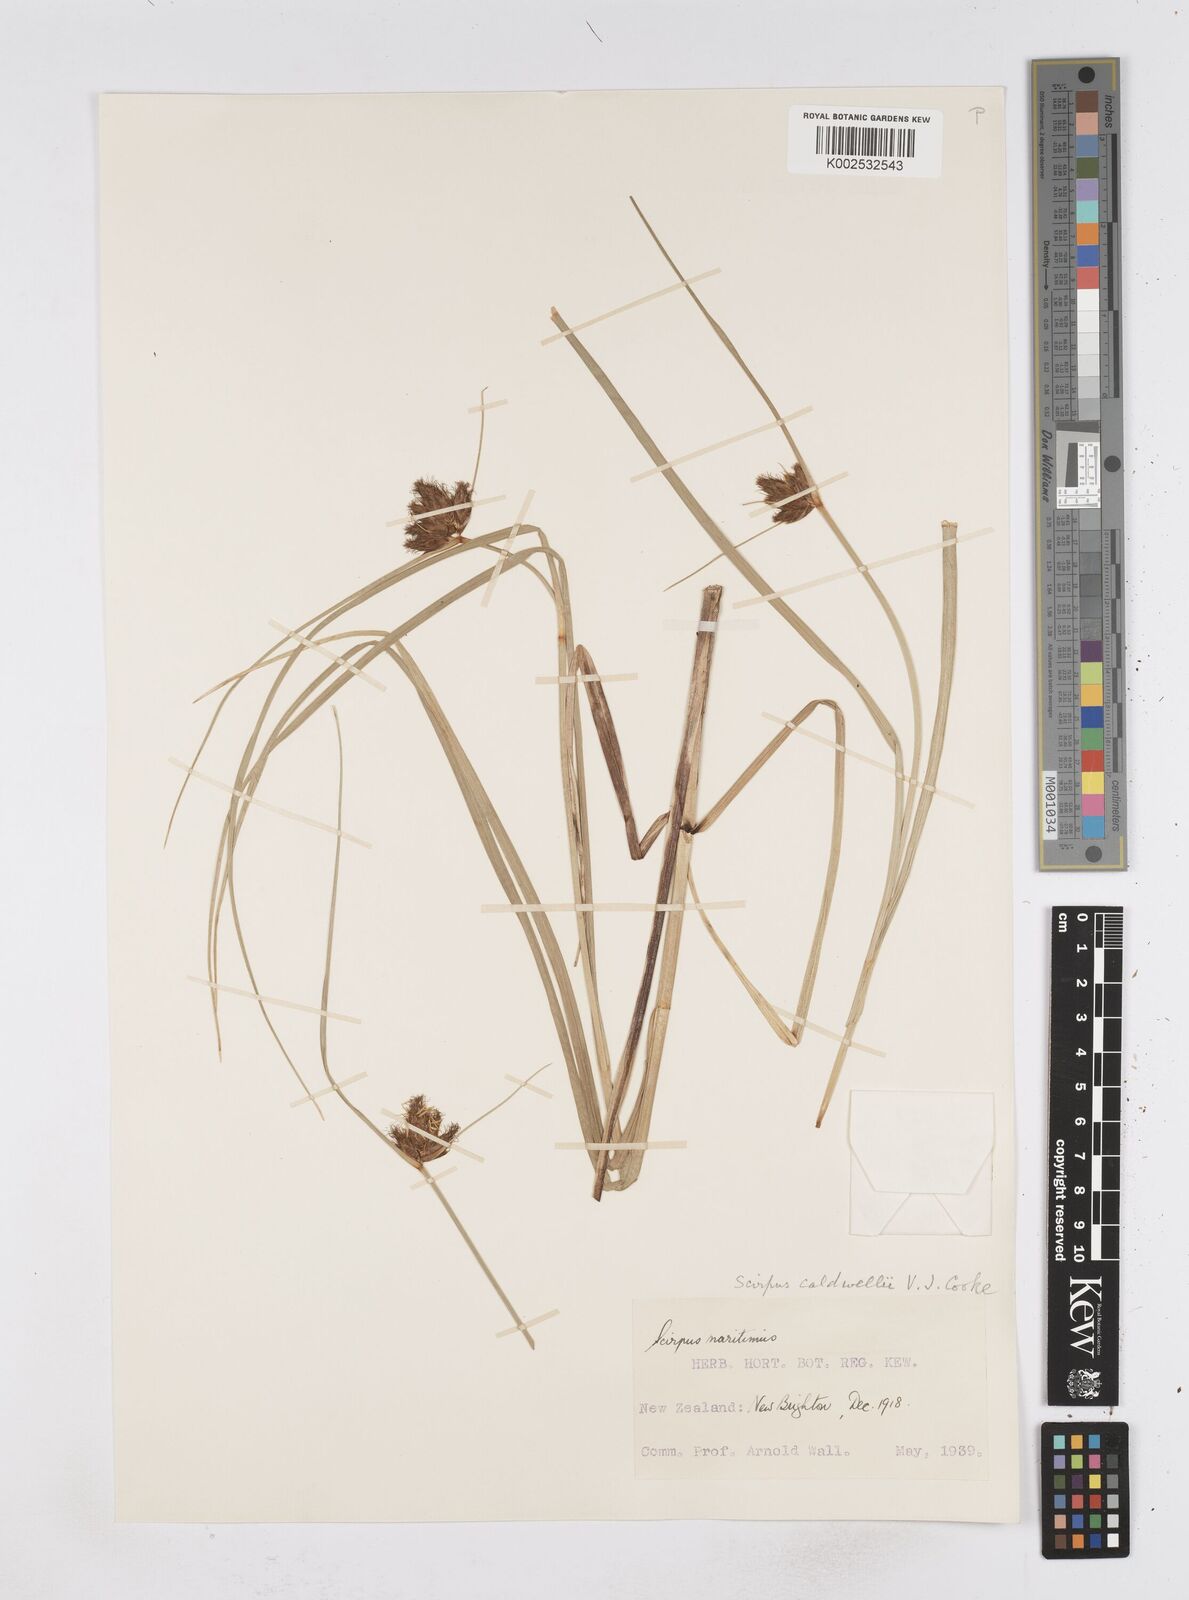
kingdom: Plantae
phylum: Tracheophyta
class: Liliopsida
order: Poales
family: Cyperaceae
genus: Bolboschoenus
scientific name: Bolboschoenus caldwellii
